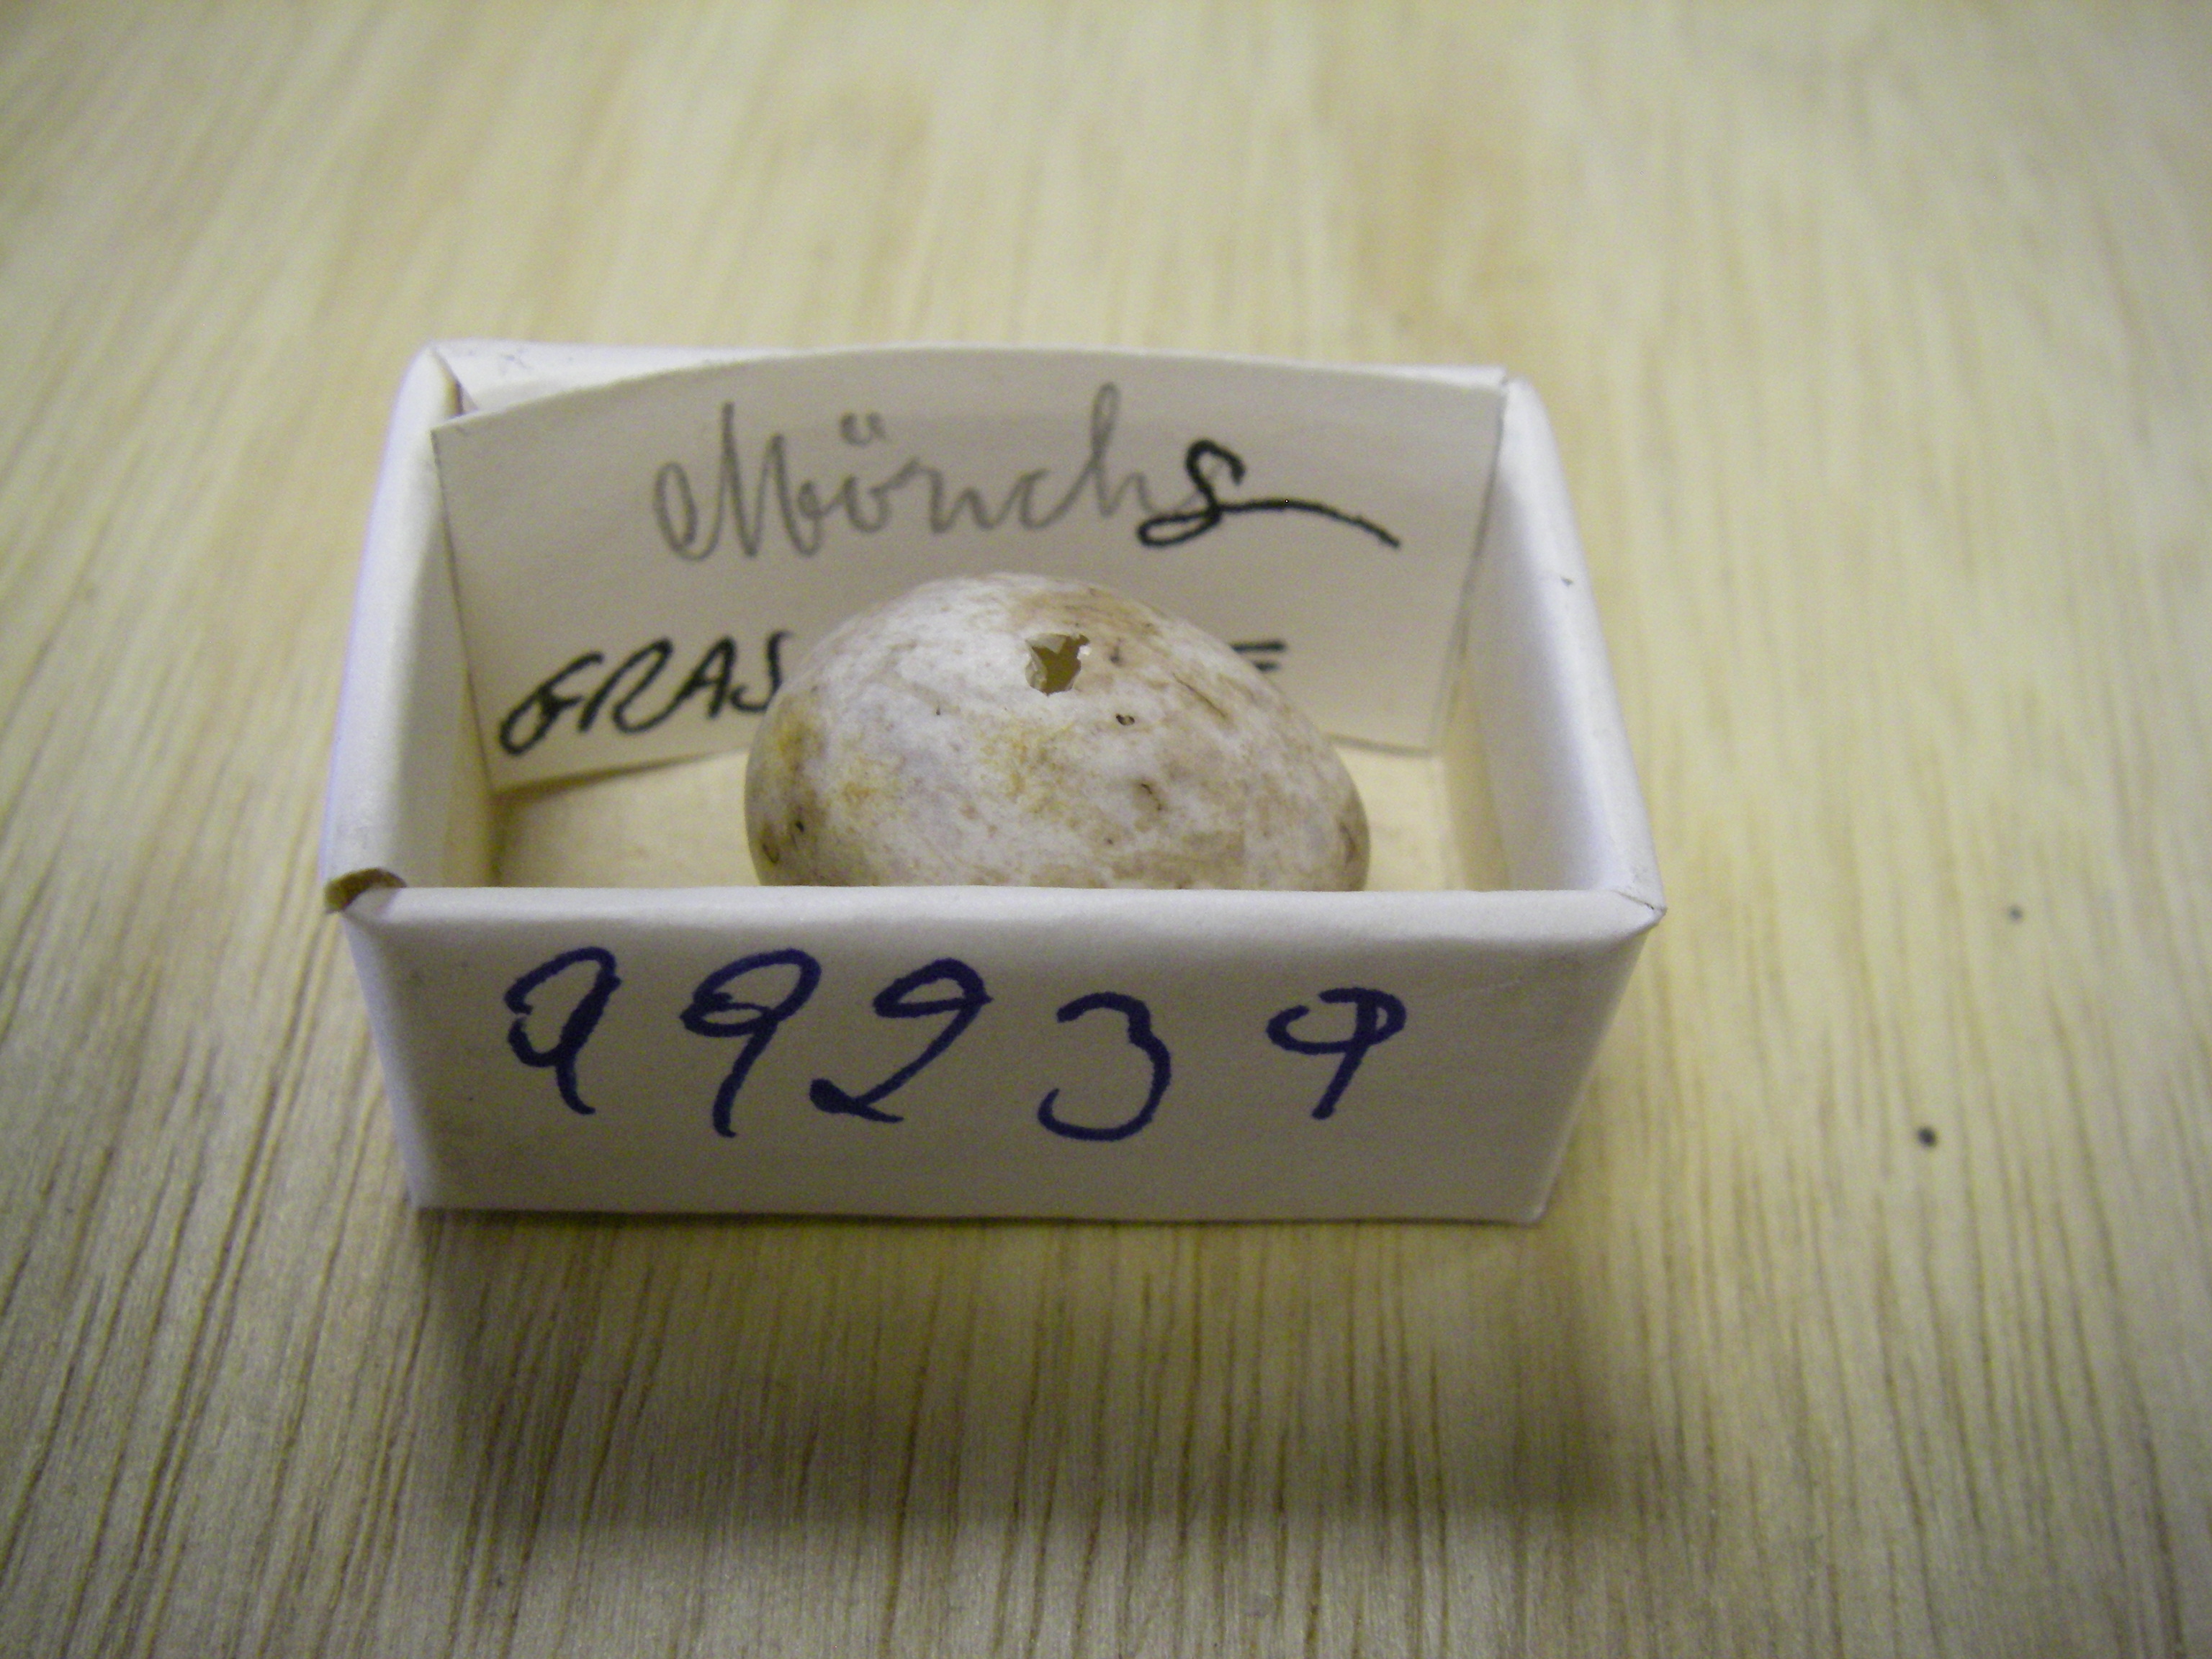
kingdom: Animalia
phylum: Chordata
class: Aves
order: Passeriformes
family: Sylviidae
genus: Sylvia
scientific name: Sylvia atricapilla
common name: Eurasian blackcap
